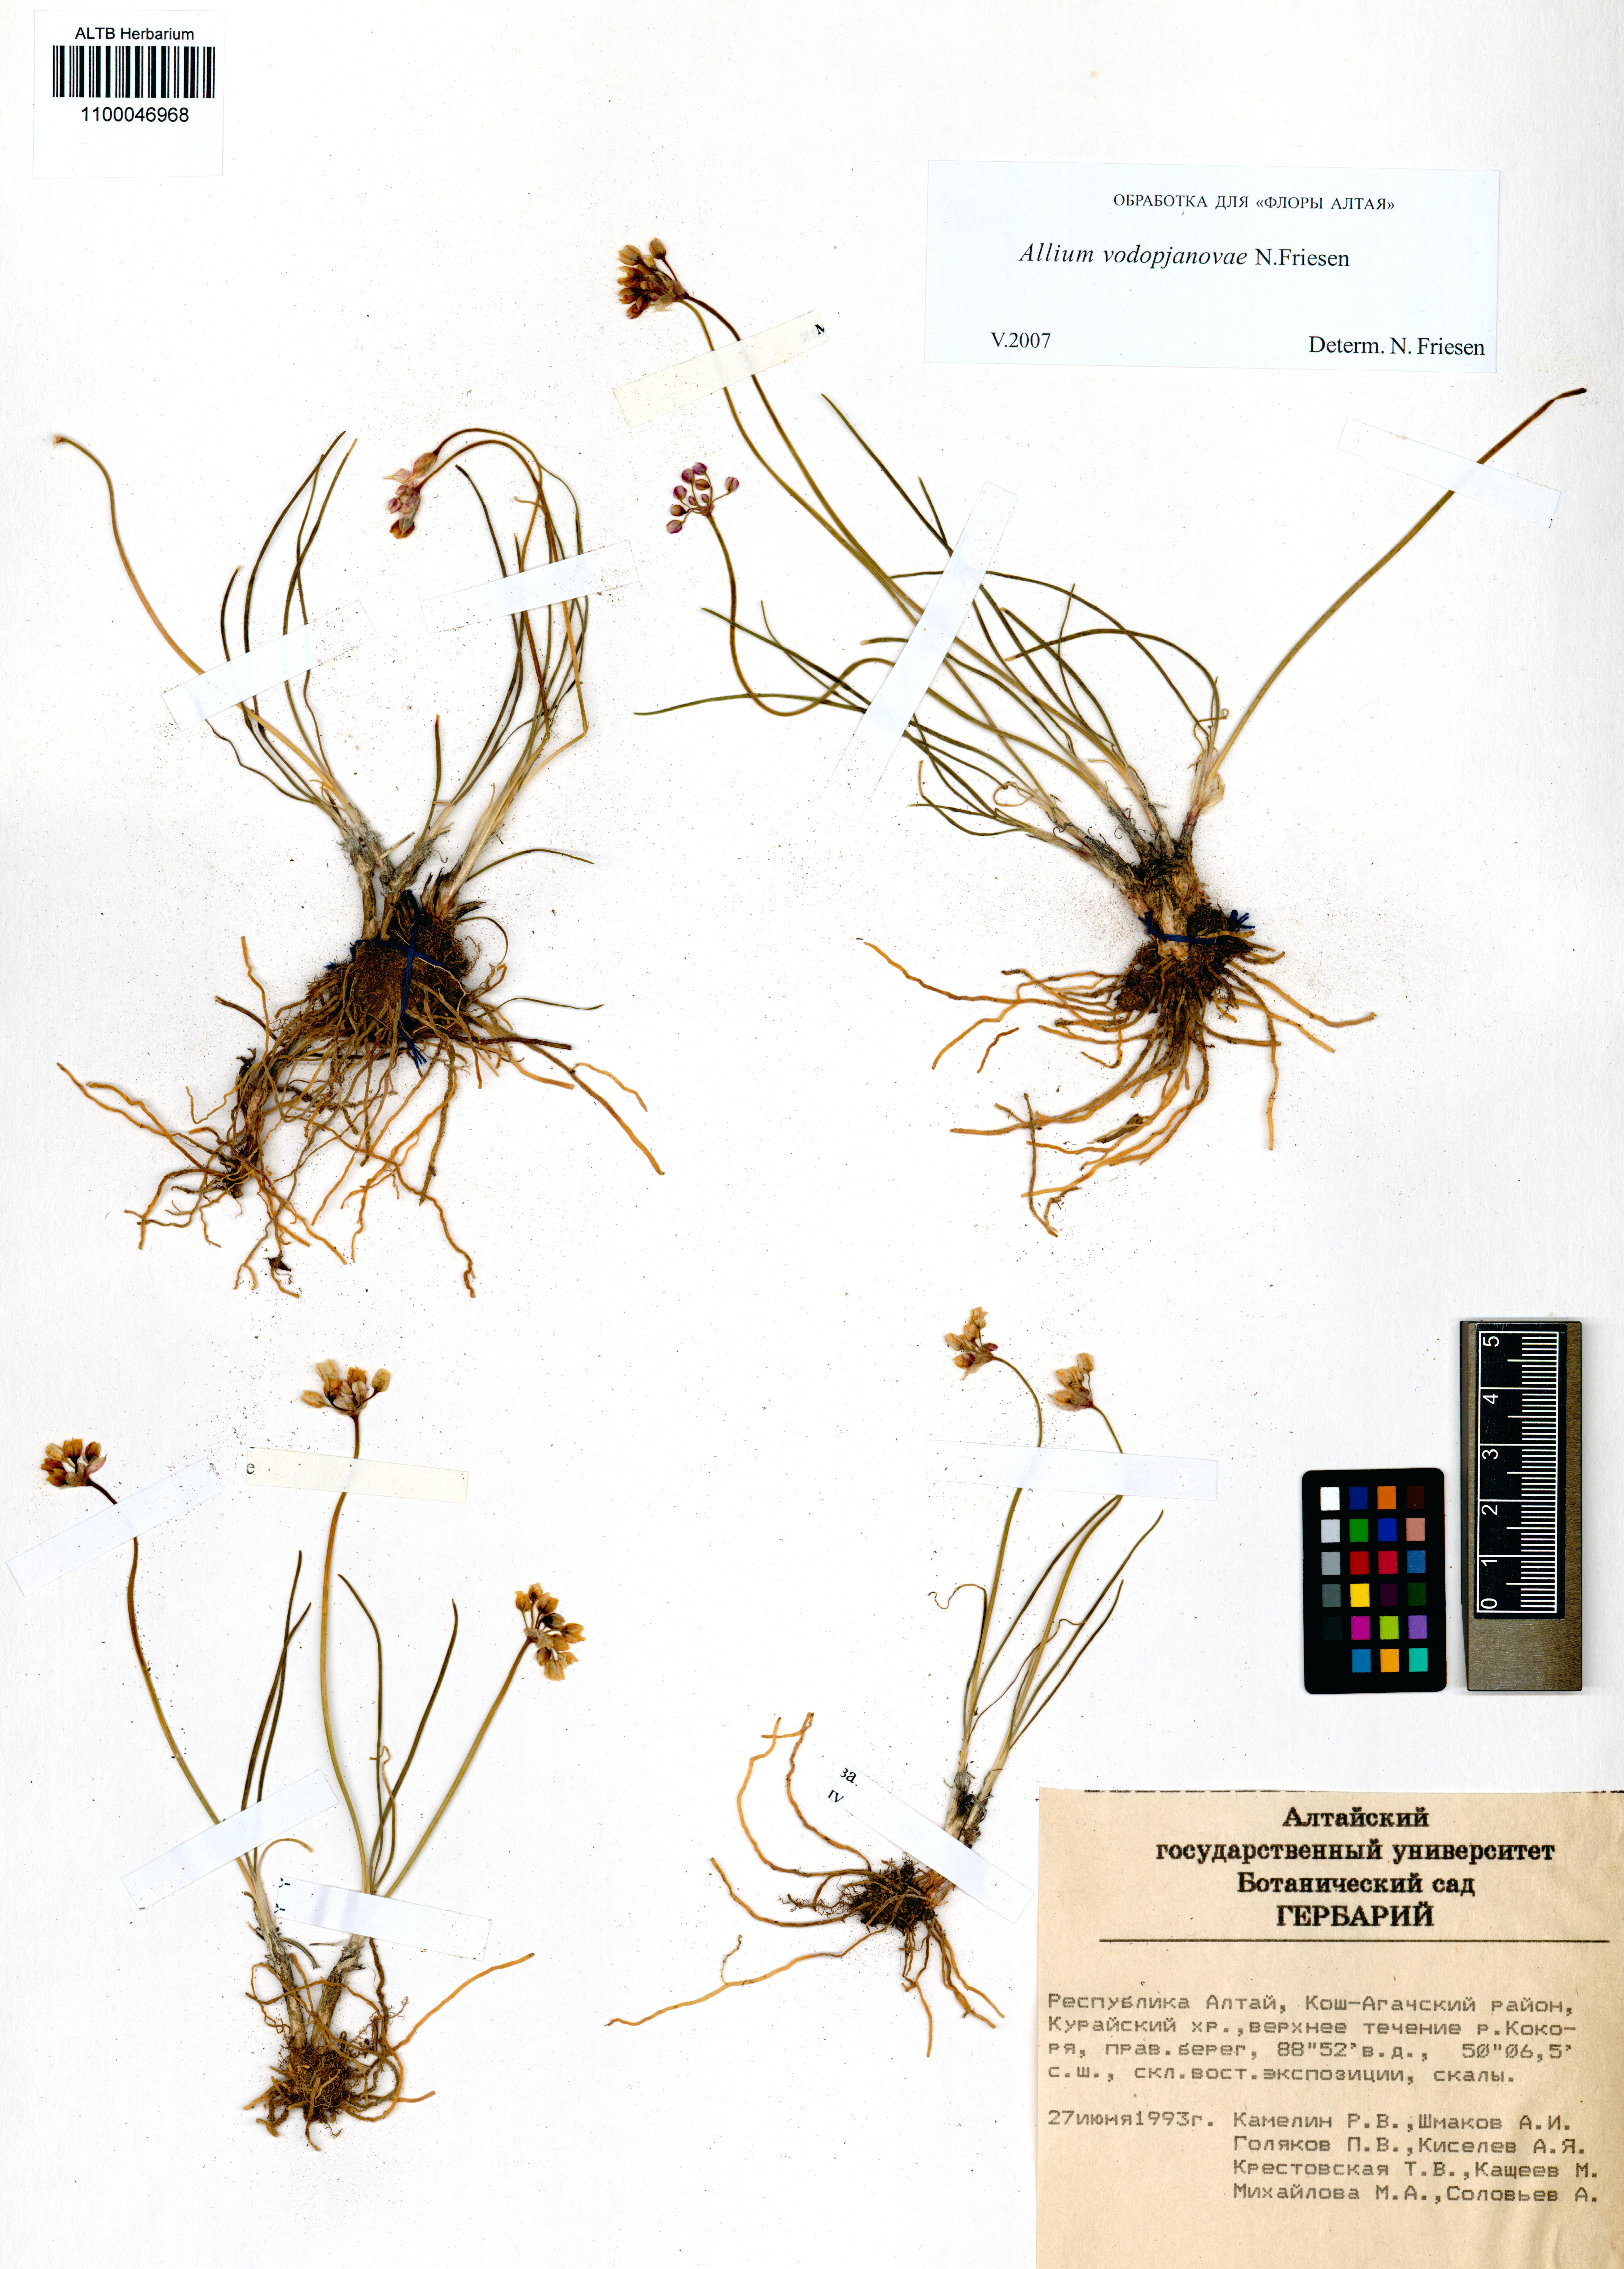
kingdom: Plantae
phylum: Tracheophyta
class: Liliopsida
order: Asparagales
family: Amaryllidaceae
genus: Allium
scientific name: Allium vodopjanovae
